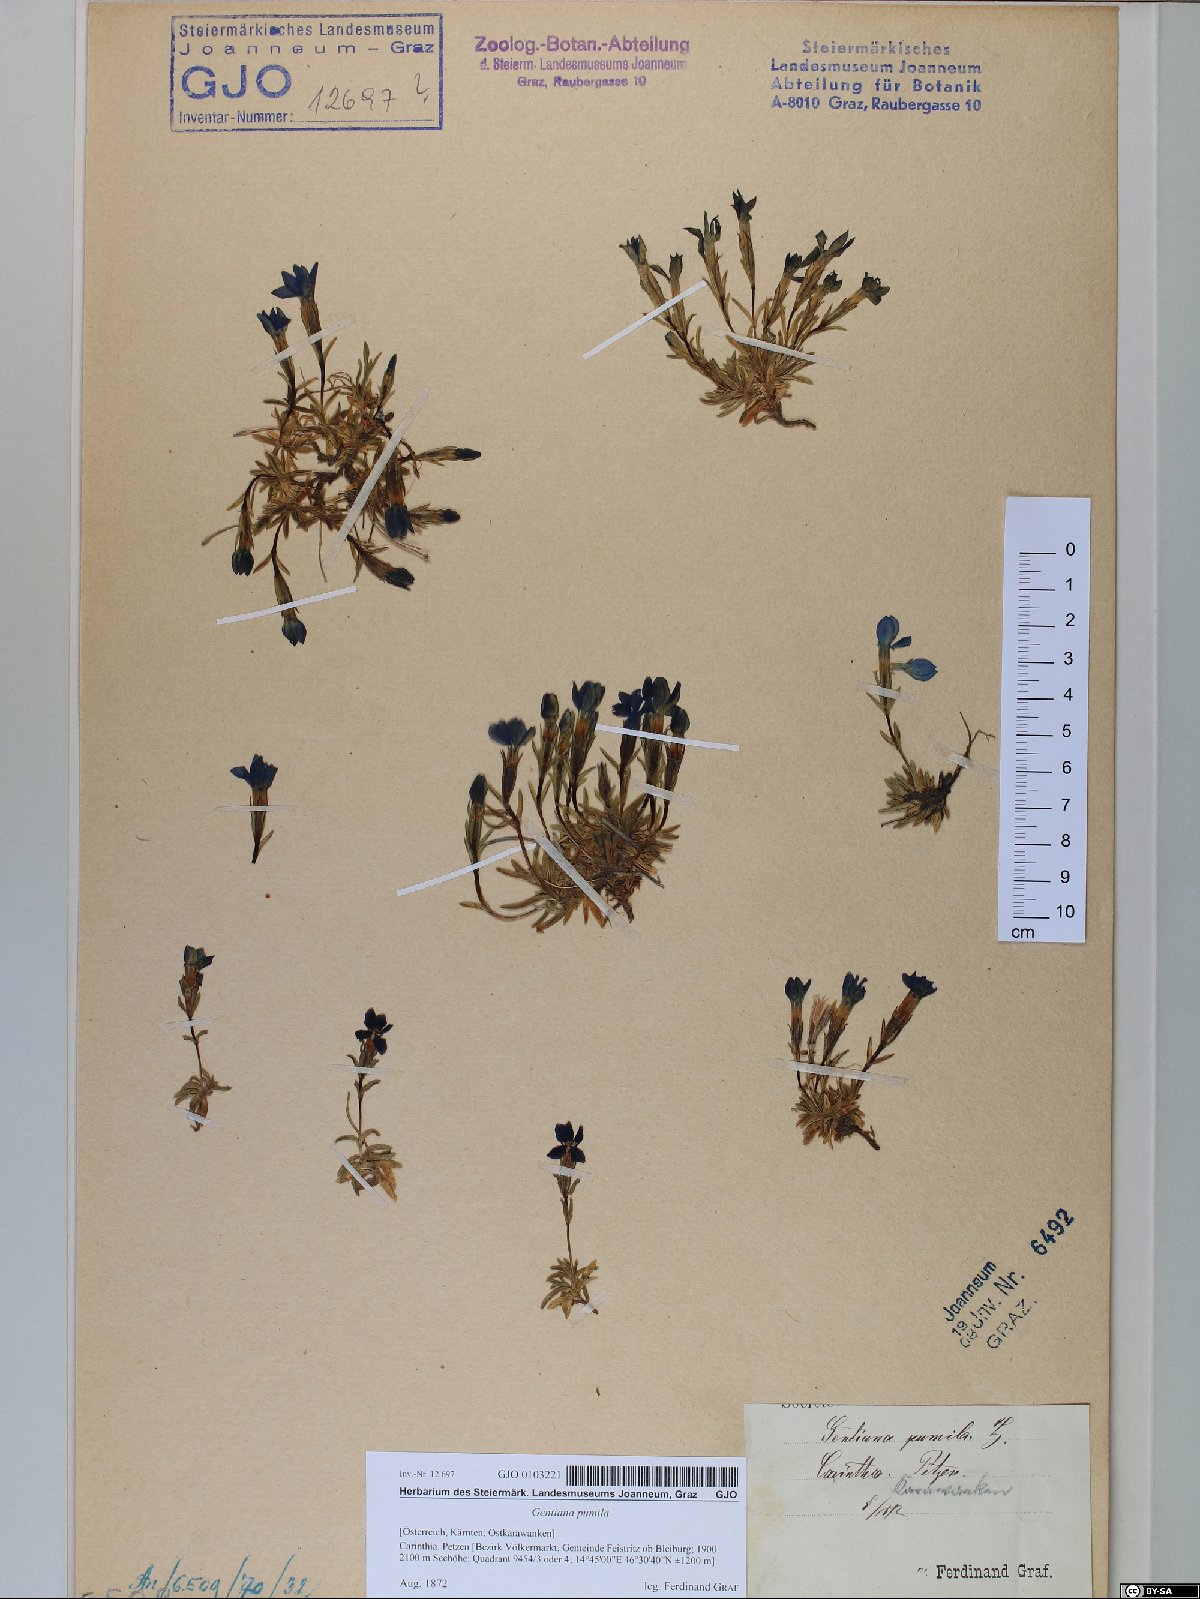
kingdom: Plantae
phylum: Tracheophyta
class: Magnoliopsida
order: Gentianales
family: Gentianaceae
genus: Gentiana
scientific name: Gentiana pumila
